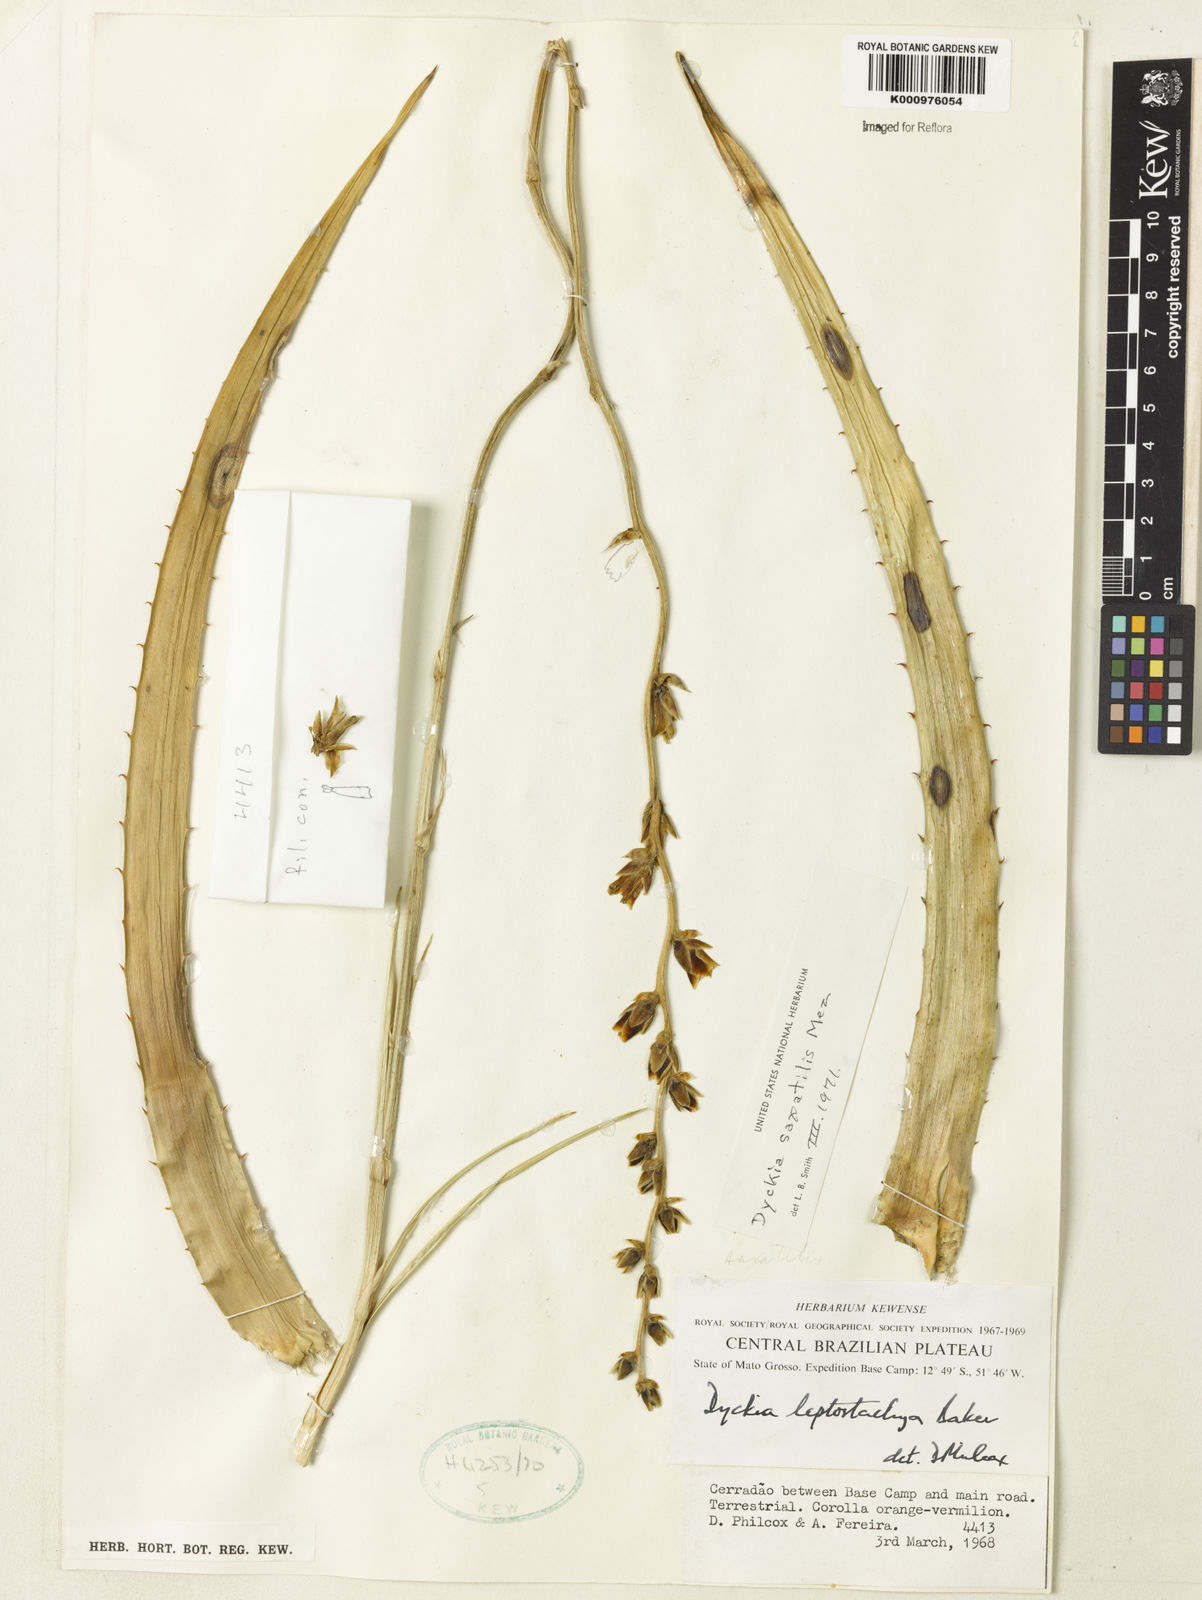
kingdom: Plantae
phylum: Tracheophyta
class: Liliopsida
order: Poales
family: Bromeliaceae
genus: Dyckia
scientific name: Dyckia saxatilis
